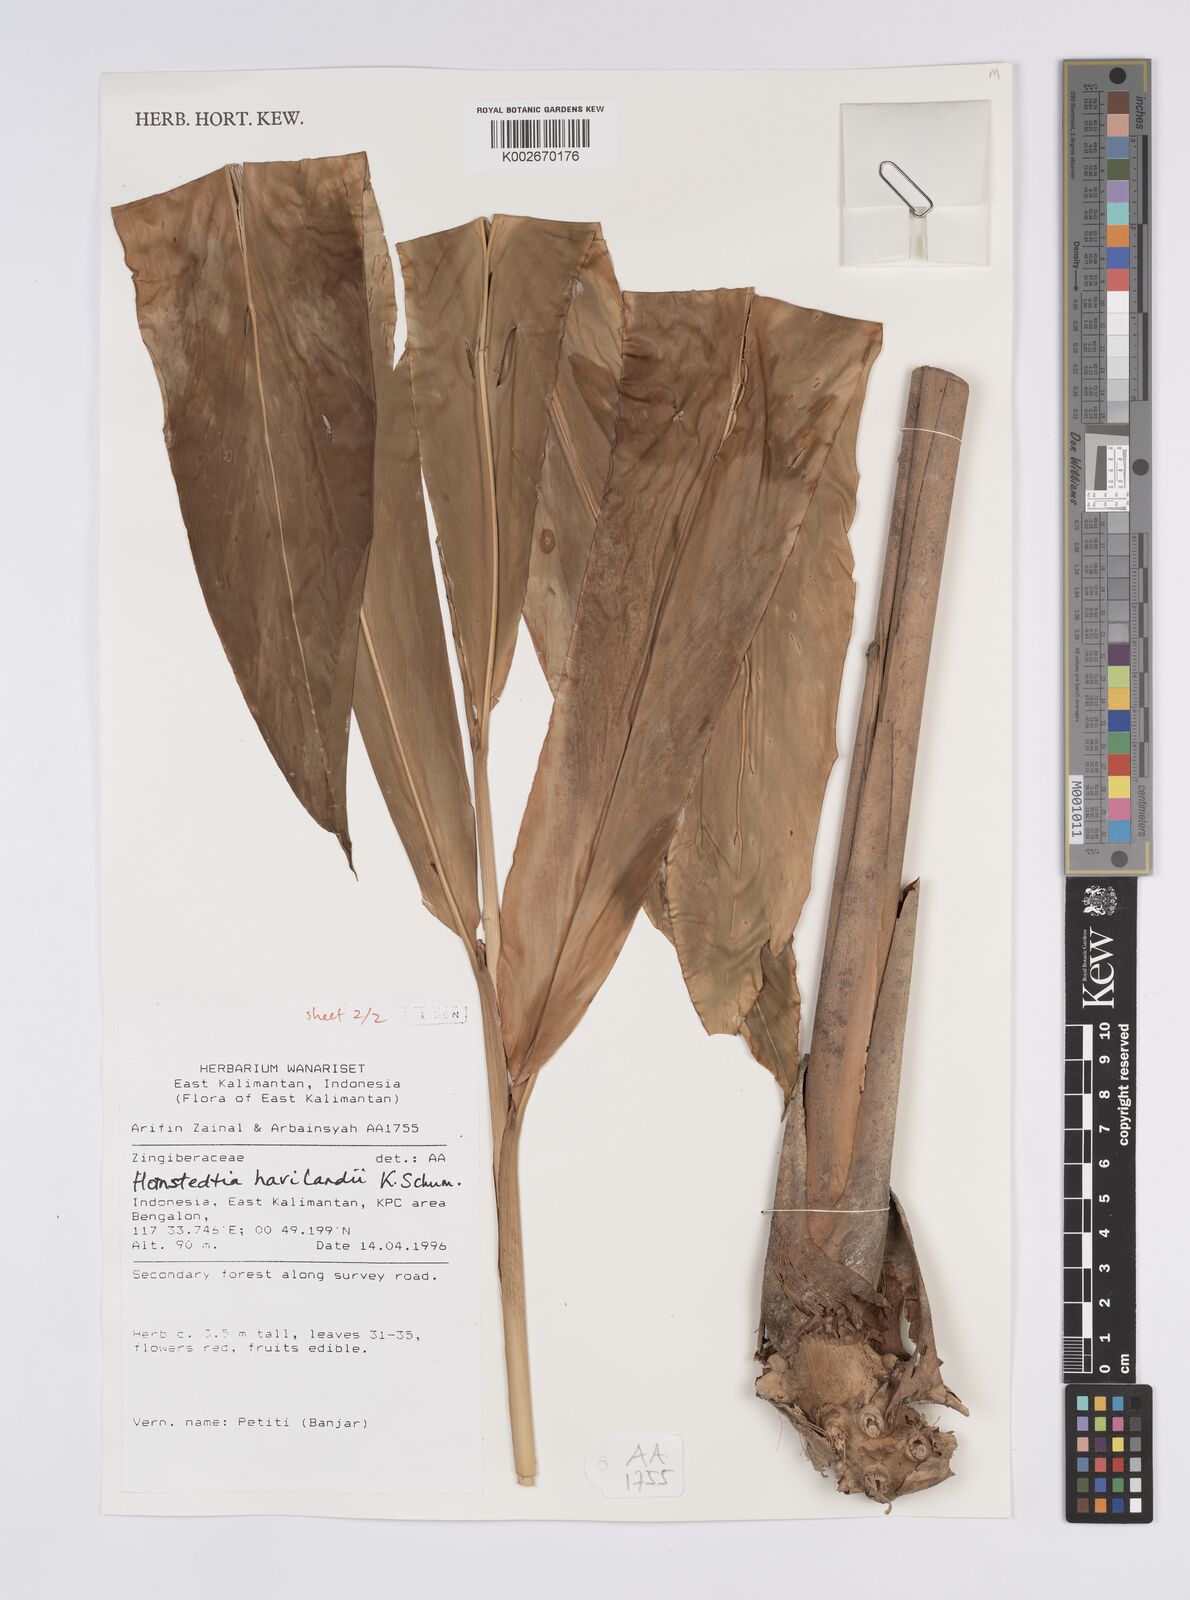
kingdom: Plantae
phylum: Tracheophyta
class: Liliopsida
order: Zingiberales
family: Zingiberaceae
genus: Hornstedtia
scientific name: Hornstedtia havilandii
